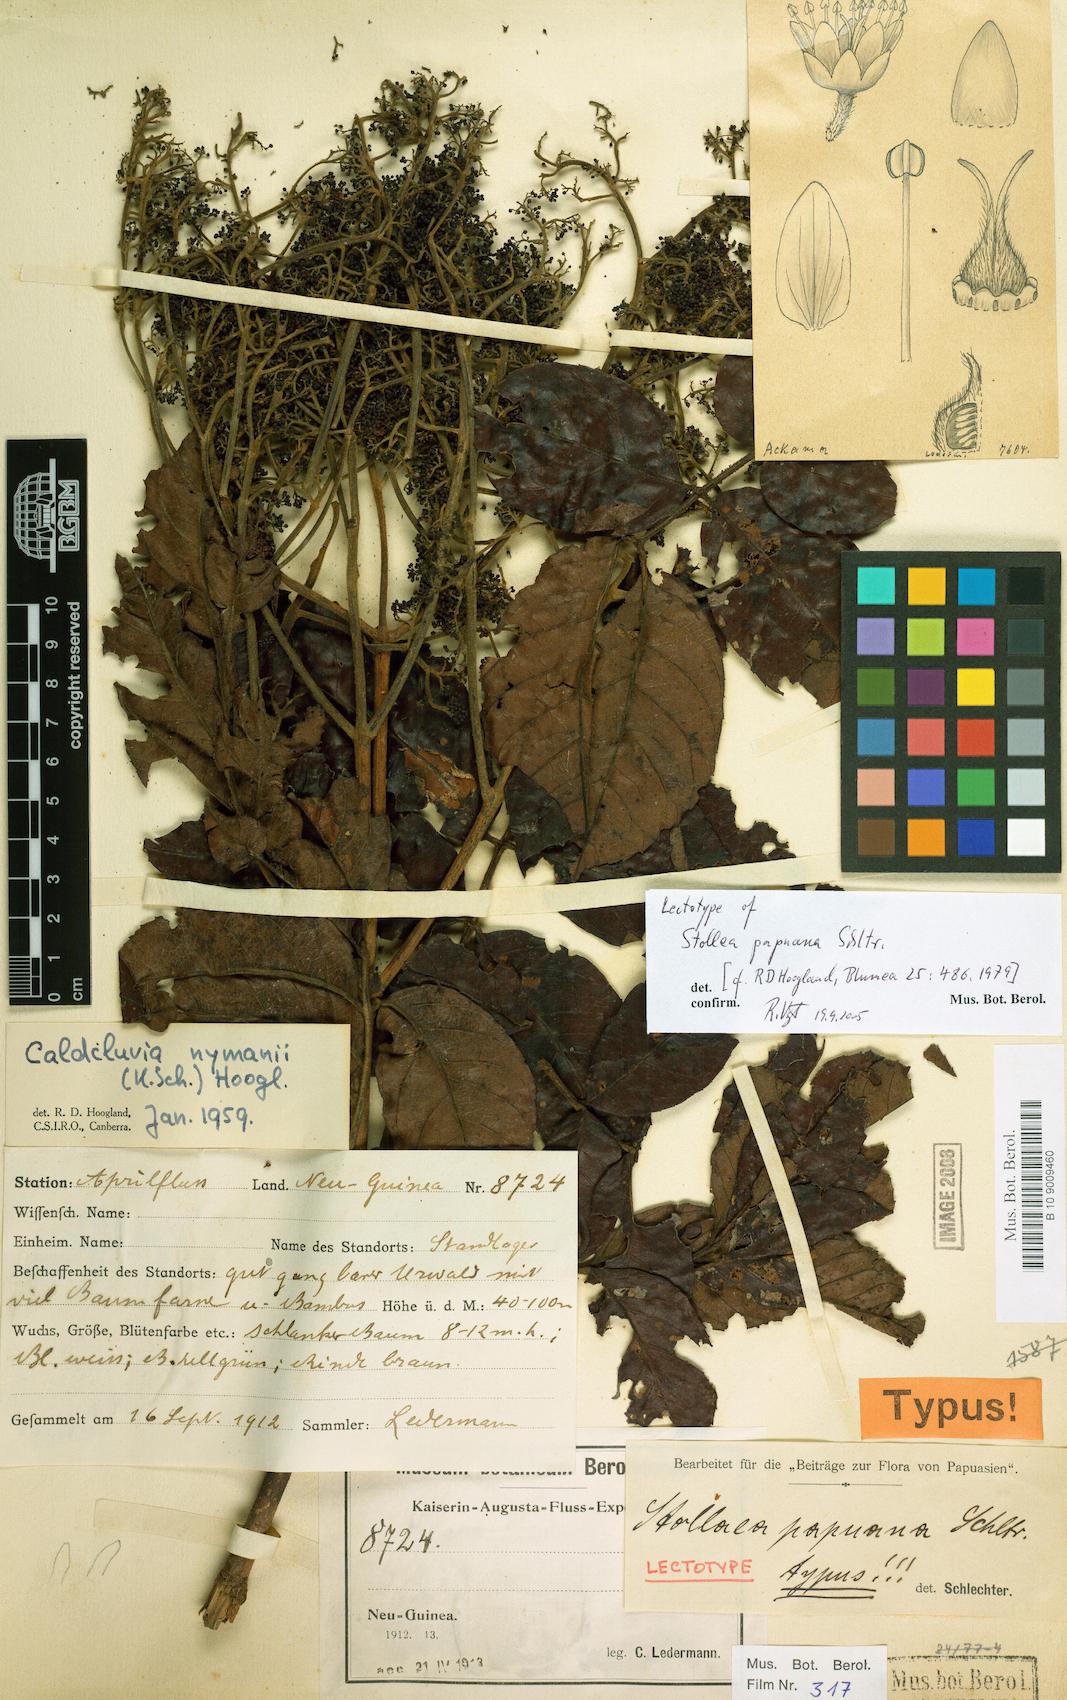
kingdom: Plantae
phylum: Tracheophyta
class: Magnoliopsida
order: Oxalidales
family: Cunoniaceae
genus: Opocunonia
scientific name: Opocunonia nymanii
